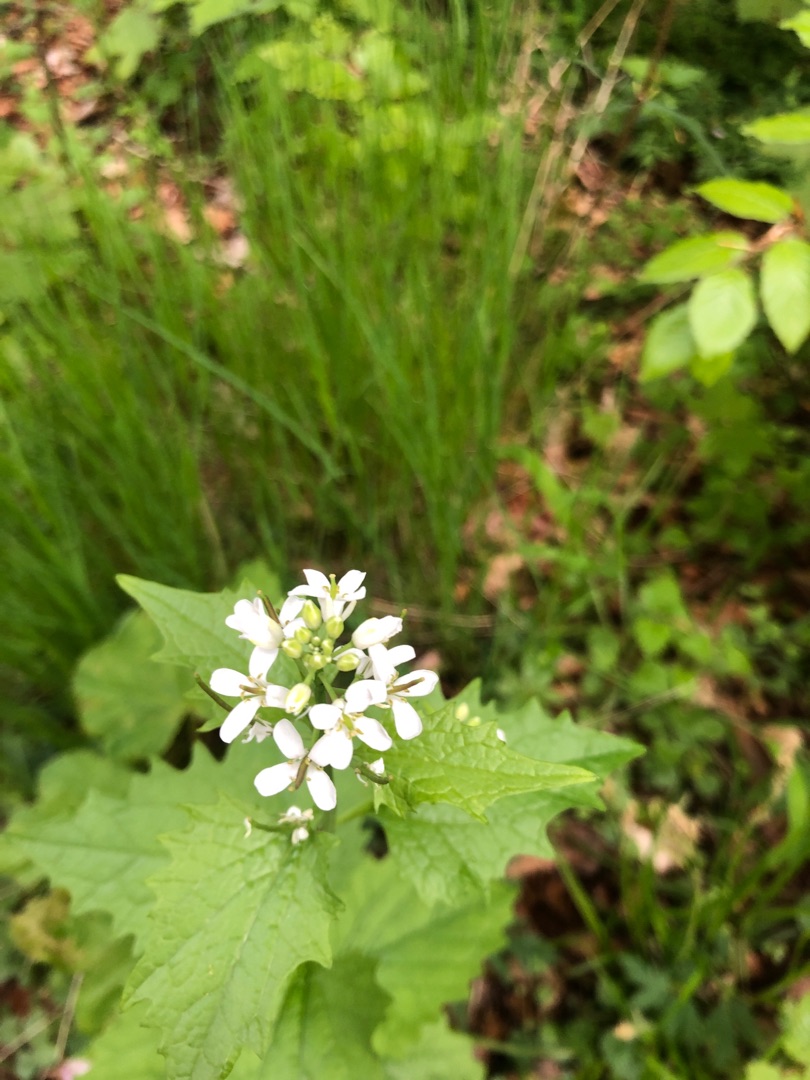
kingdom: Plantae
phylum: Tracheophyta
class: Magnoliopsida
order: Brassicales
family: Brassicaceae
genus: Alliaria
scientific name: Alliaria petiolata
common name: Løgkarse
